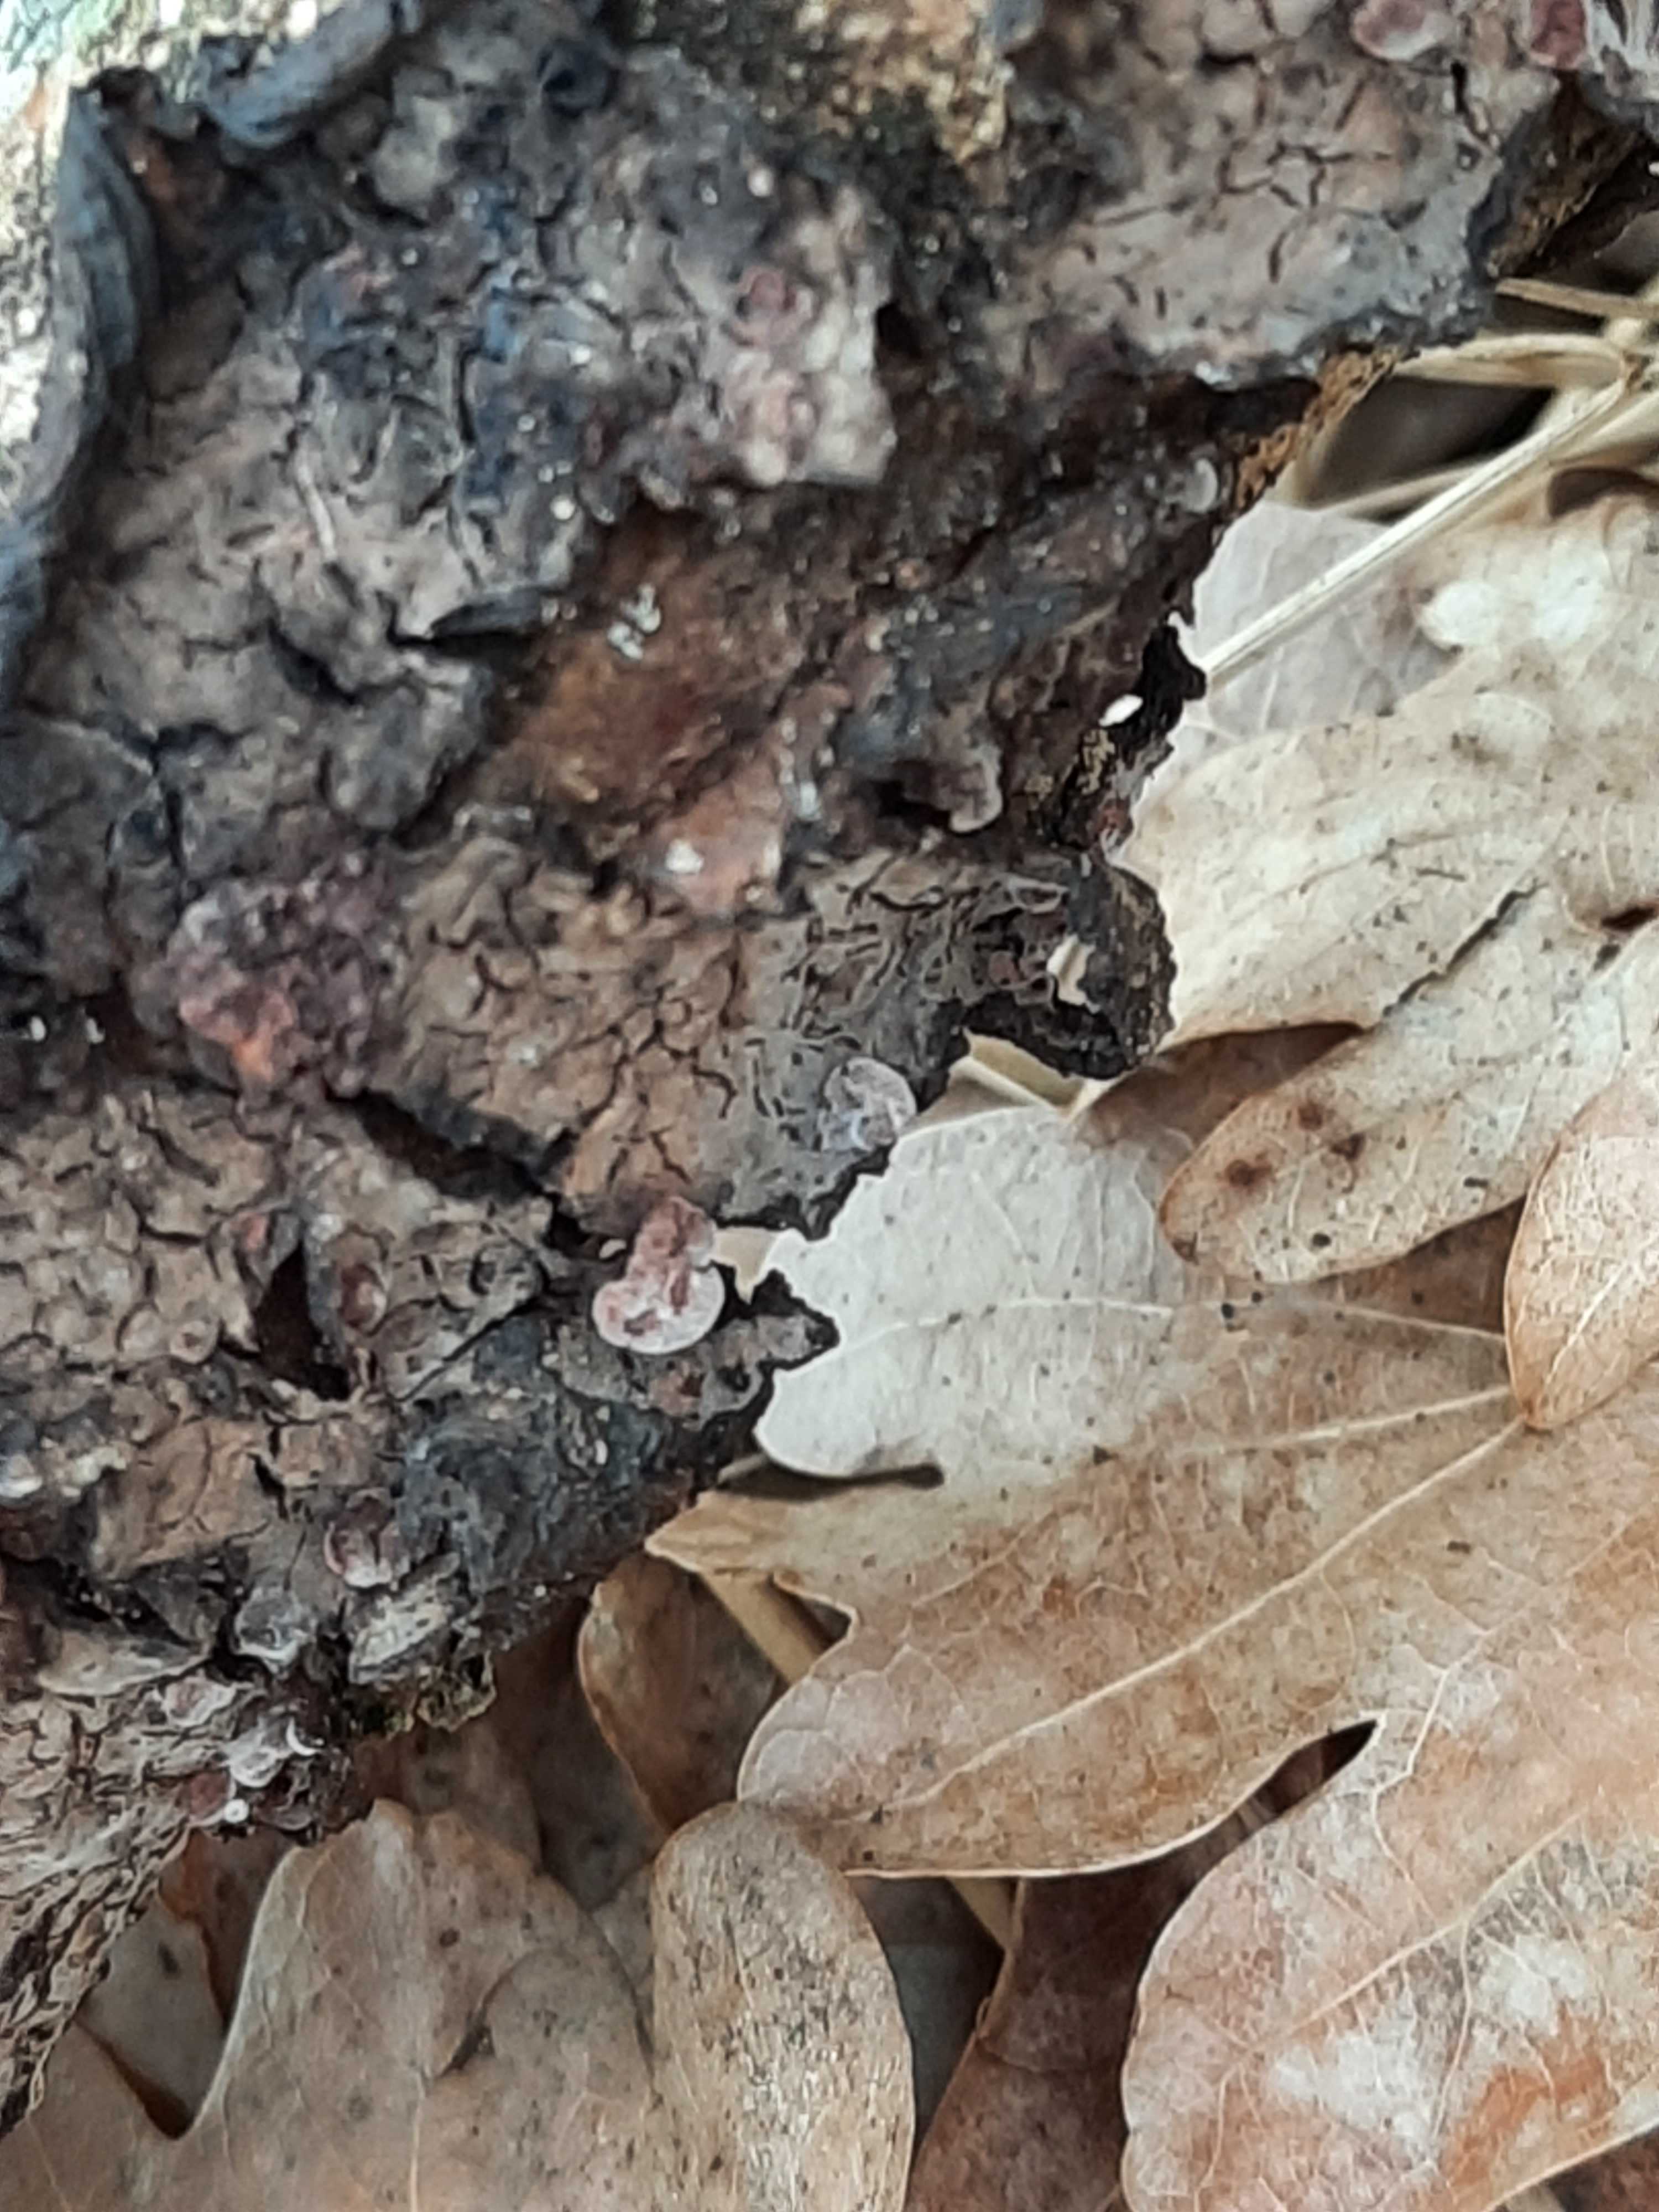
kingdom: Fungi
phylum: Basidiomycota
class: Agaricomycetes
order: Russulales
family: Peniophoraceae
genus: Peniophora
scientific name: Peniophora quercina
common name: ege-voksskind
